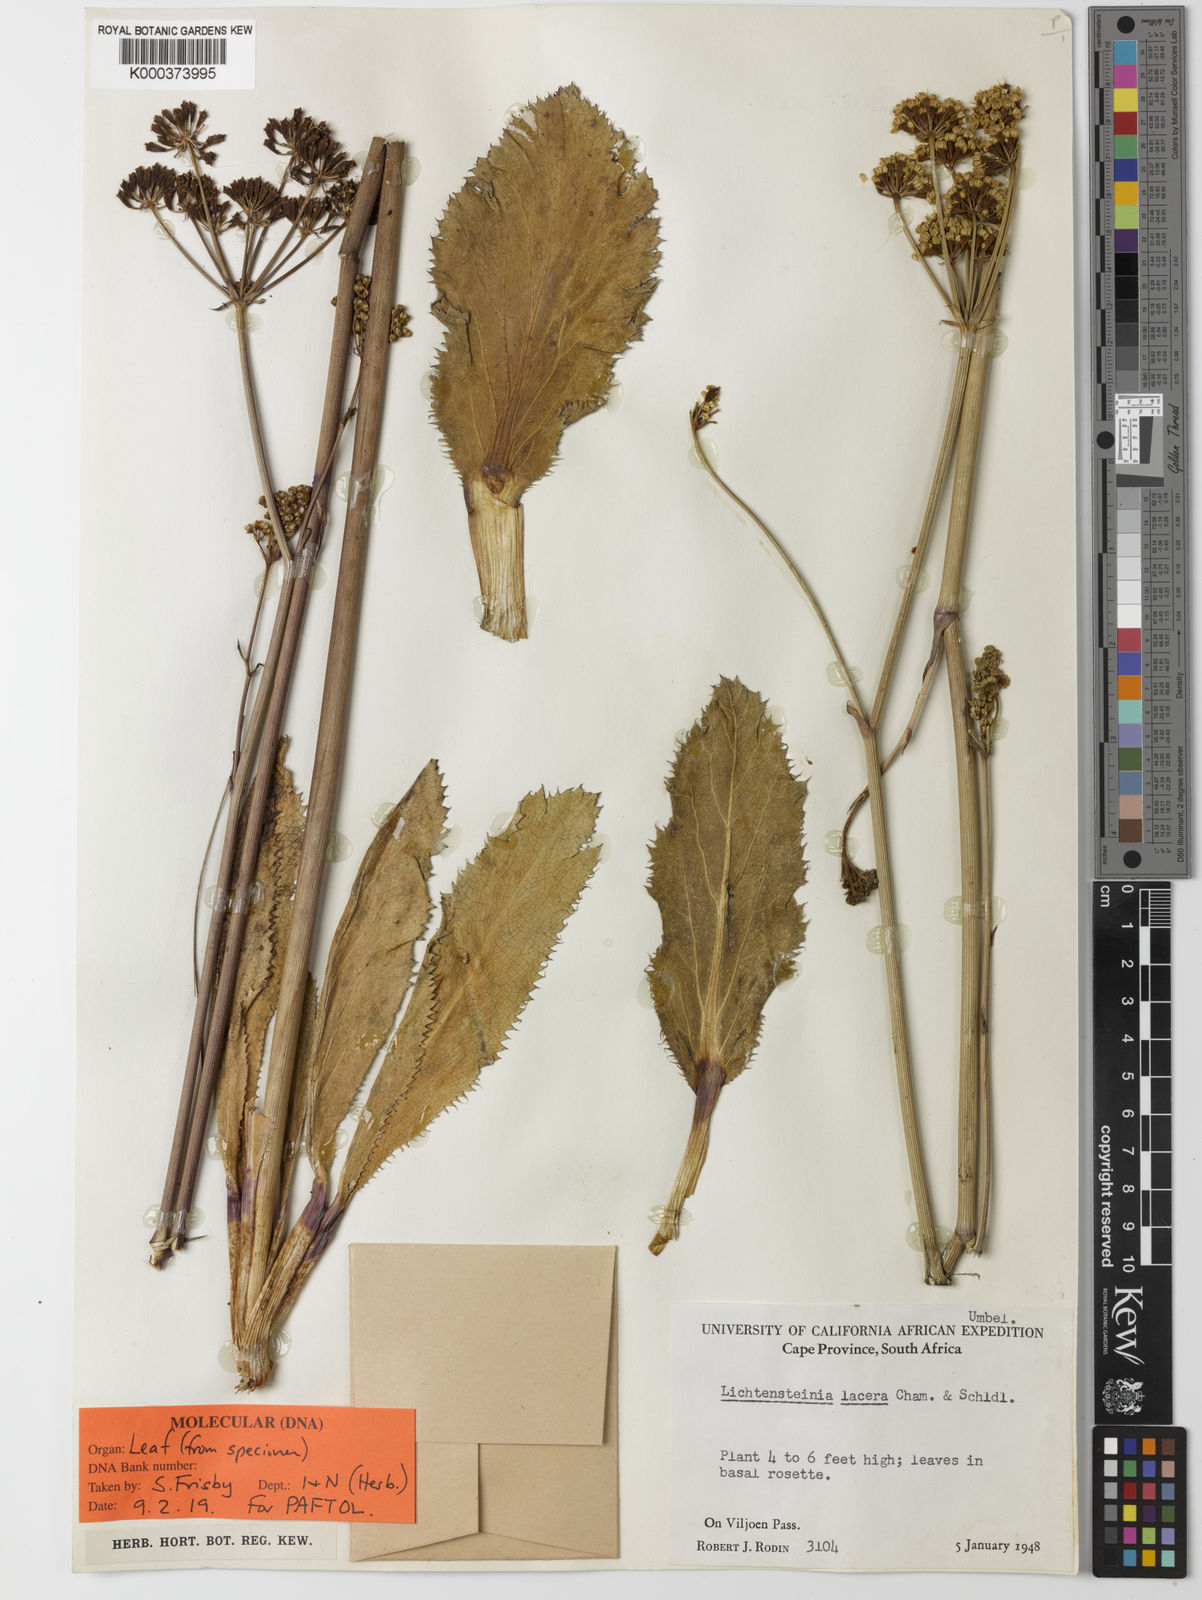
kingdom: Plantae
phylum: Tracheophyta
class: Magnoliopsida
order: Apiales
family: Apiaceae
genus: Lichtensteinia
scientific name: Lichtensteinia lacera
